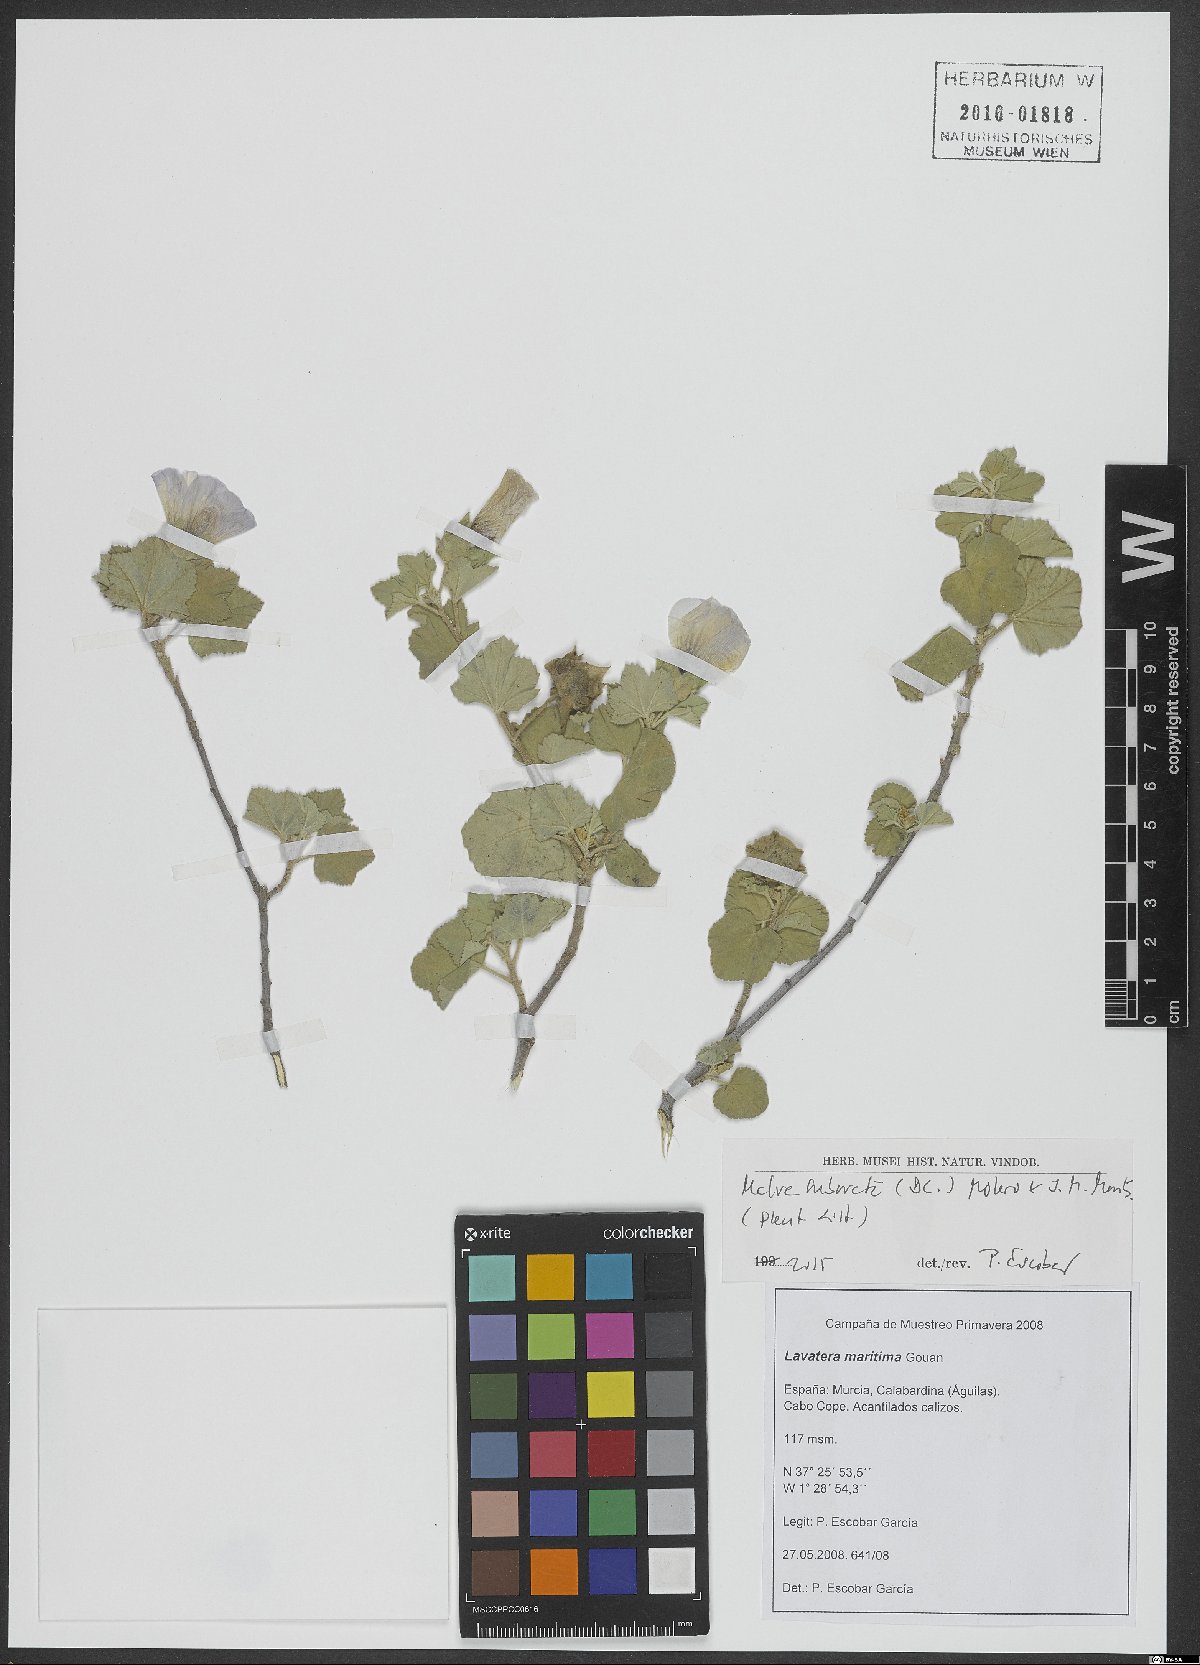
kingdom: Plantae
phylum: Tracheophyta
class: Magnoliopsida
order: Malvales
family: Malvaceae
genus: Malva
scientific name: Malva subovata
